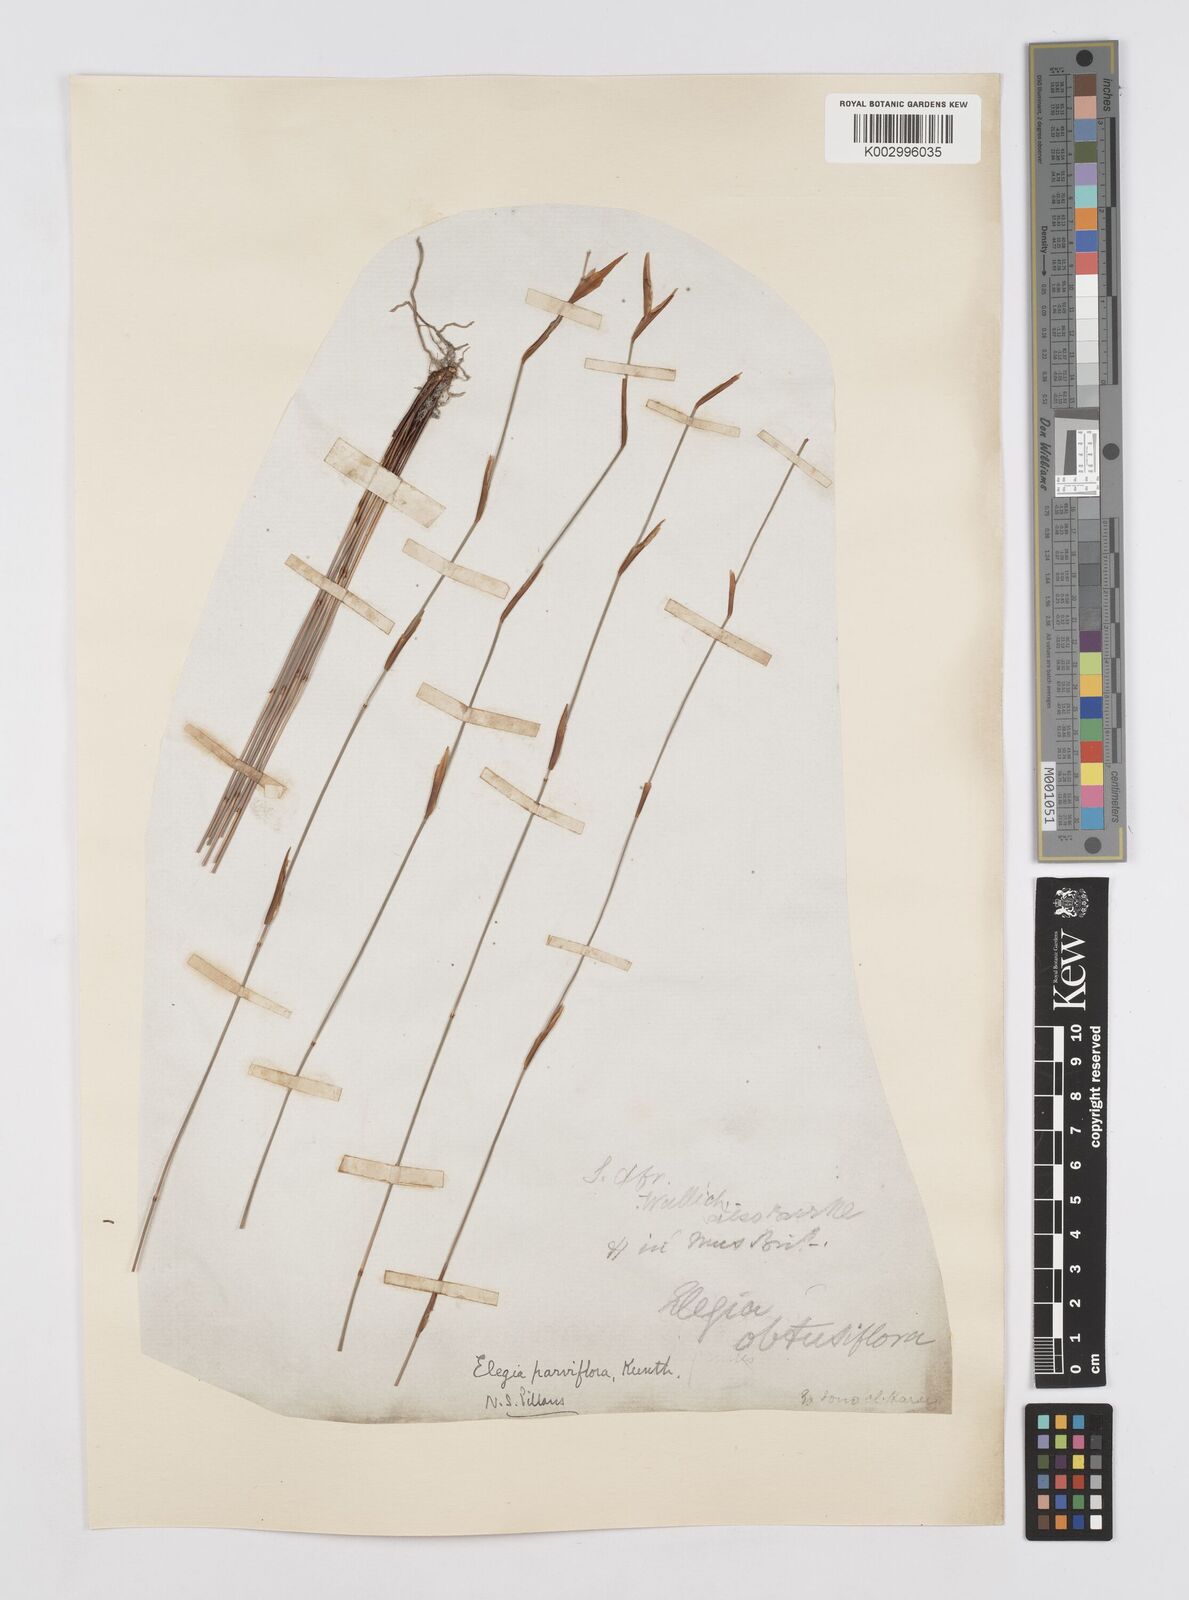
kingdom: Plantae
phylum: Tracheophyta
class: Liliopsida
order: Poales
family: Restionaceae
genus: Cannomois
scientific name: Cannomois parviflora
